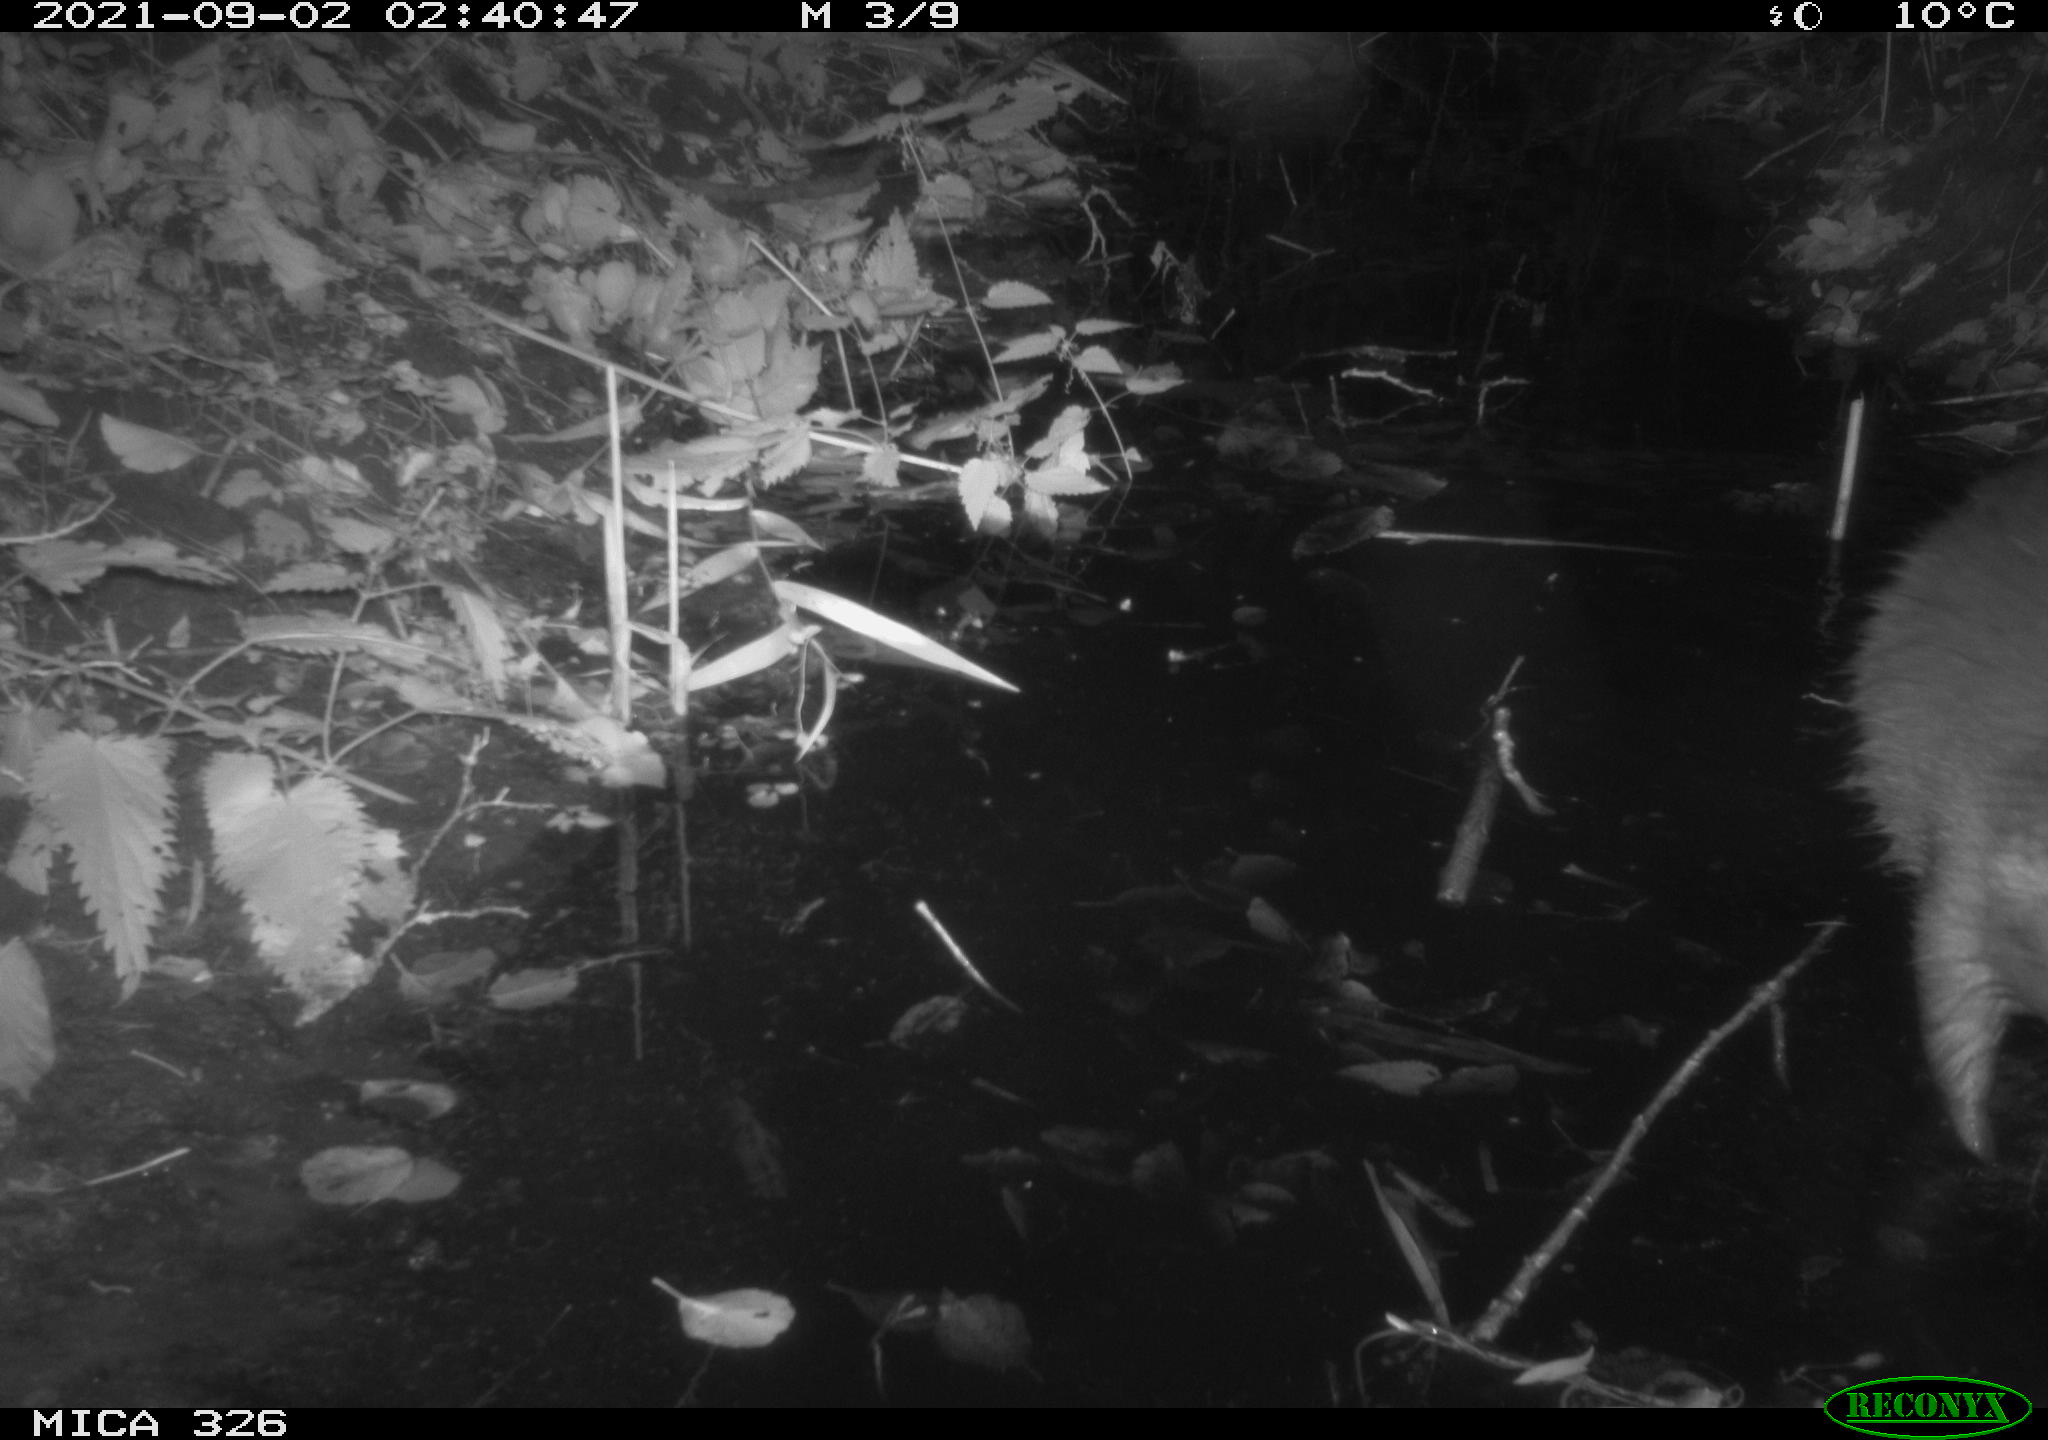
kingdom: Animalia
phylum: Chordata
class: Mammalia
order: Rodentia
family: Myocastoridae
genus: Myocastor
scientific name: Myocastor coypus
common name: Coypu
